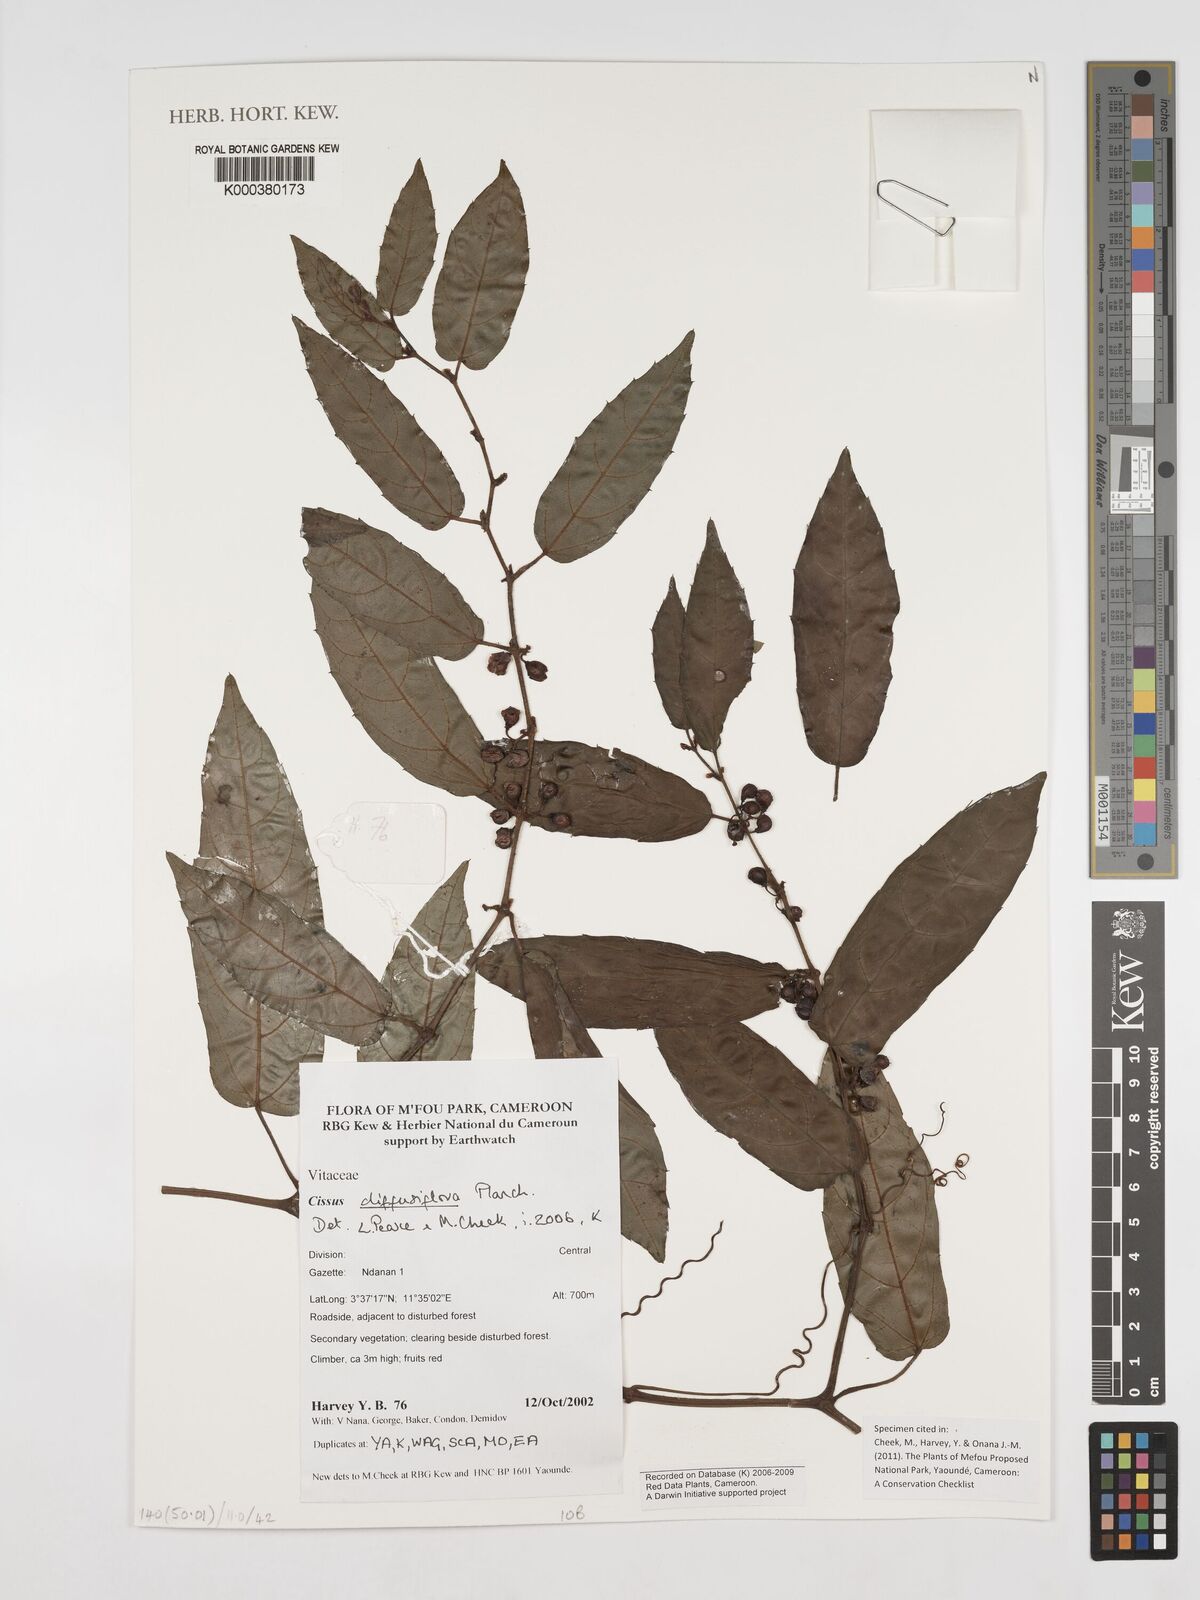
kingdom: Plantae
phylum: Tracheophyta
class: Magnoliopsida
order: Vitales
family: Vitaceae
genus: Cissus
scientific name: Cissus diffusiflora
